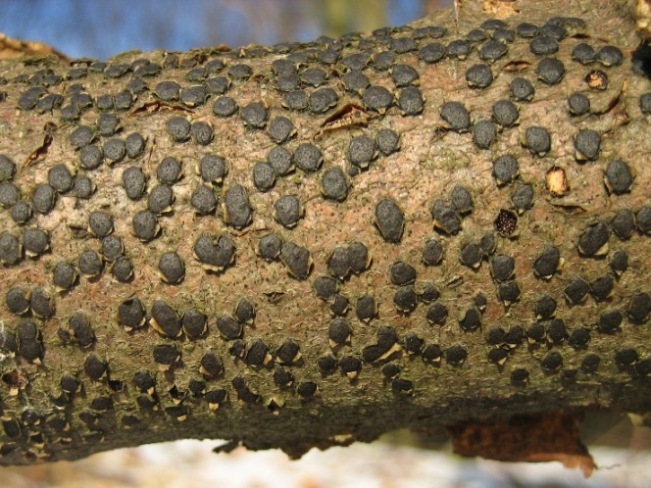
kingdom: Fungi
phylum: Ascomycota
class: Sordariomycetes
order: Xylariales
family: Diatrypaceae
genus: Diatrype
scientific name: Diatrype disciformis
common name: kant-kulskorpe
